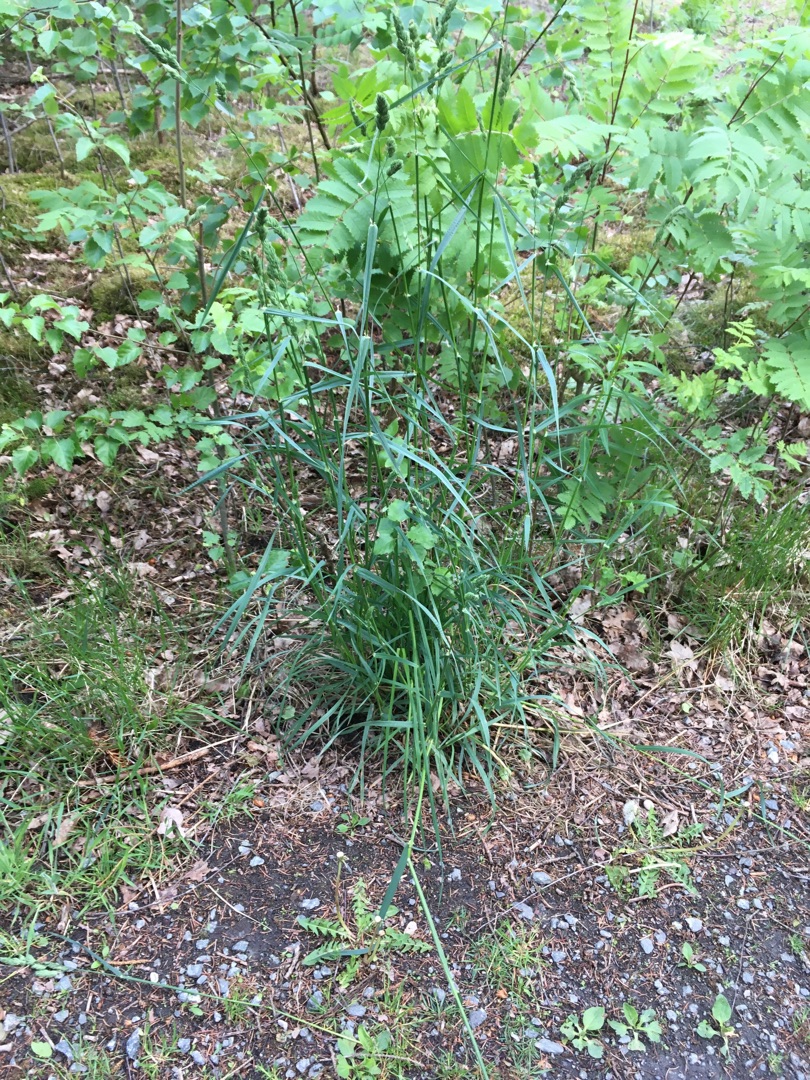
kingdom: Plantae
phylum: Tracheophyta
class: Liliopsida
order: Poales
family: Poaceae
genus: Dactylis
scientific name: Dactylis glomerata
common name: Almindelig hundegræs
